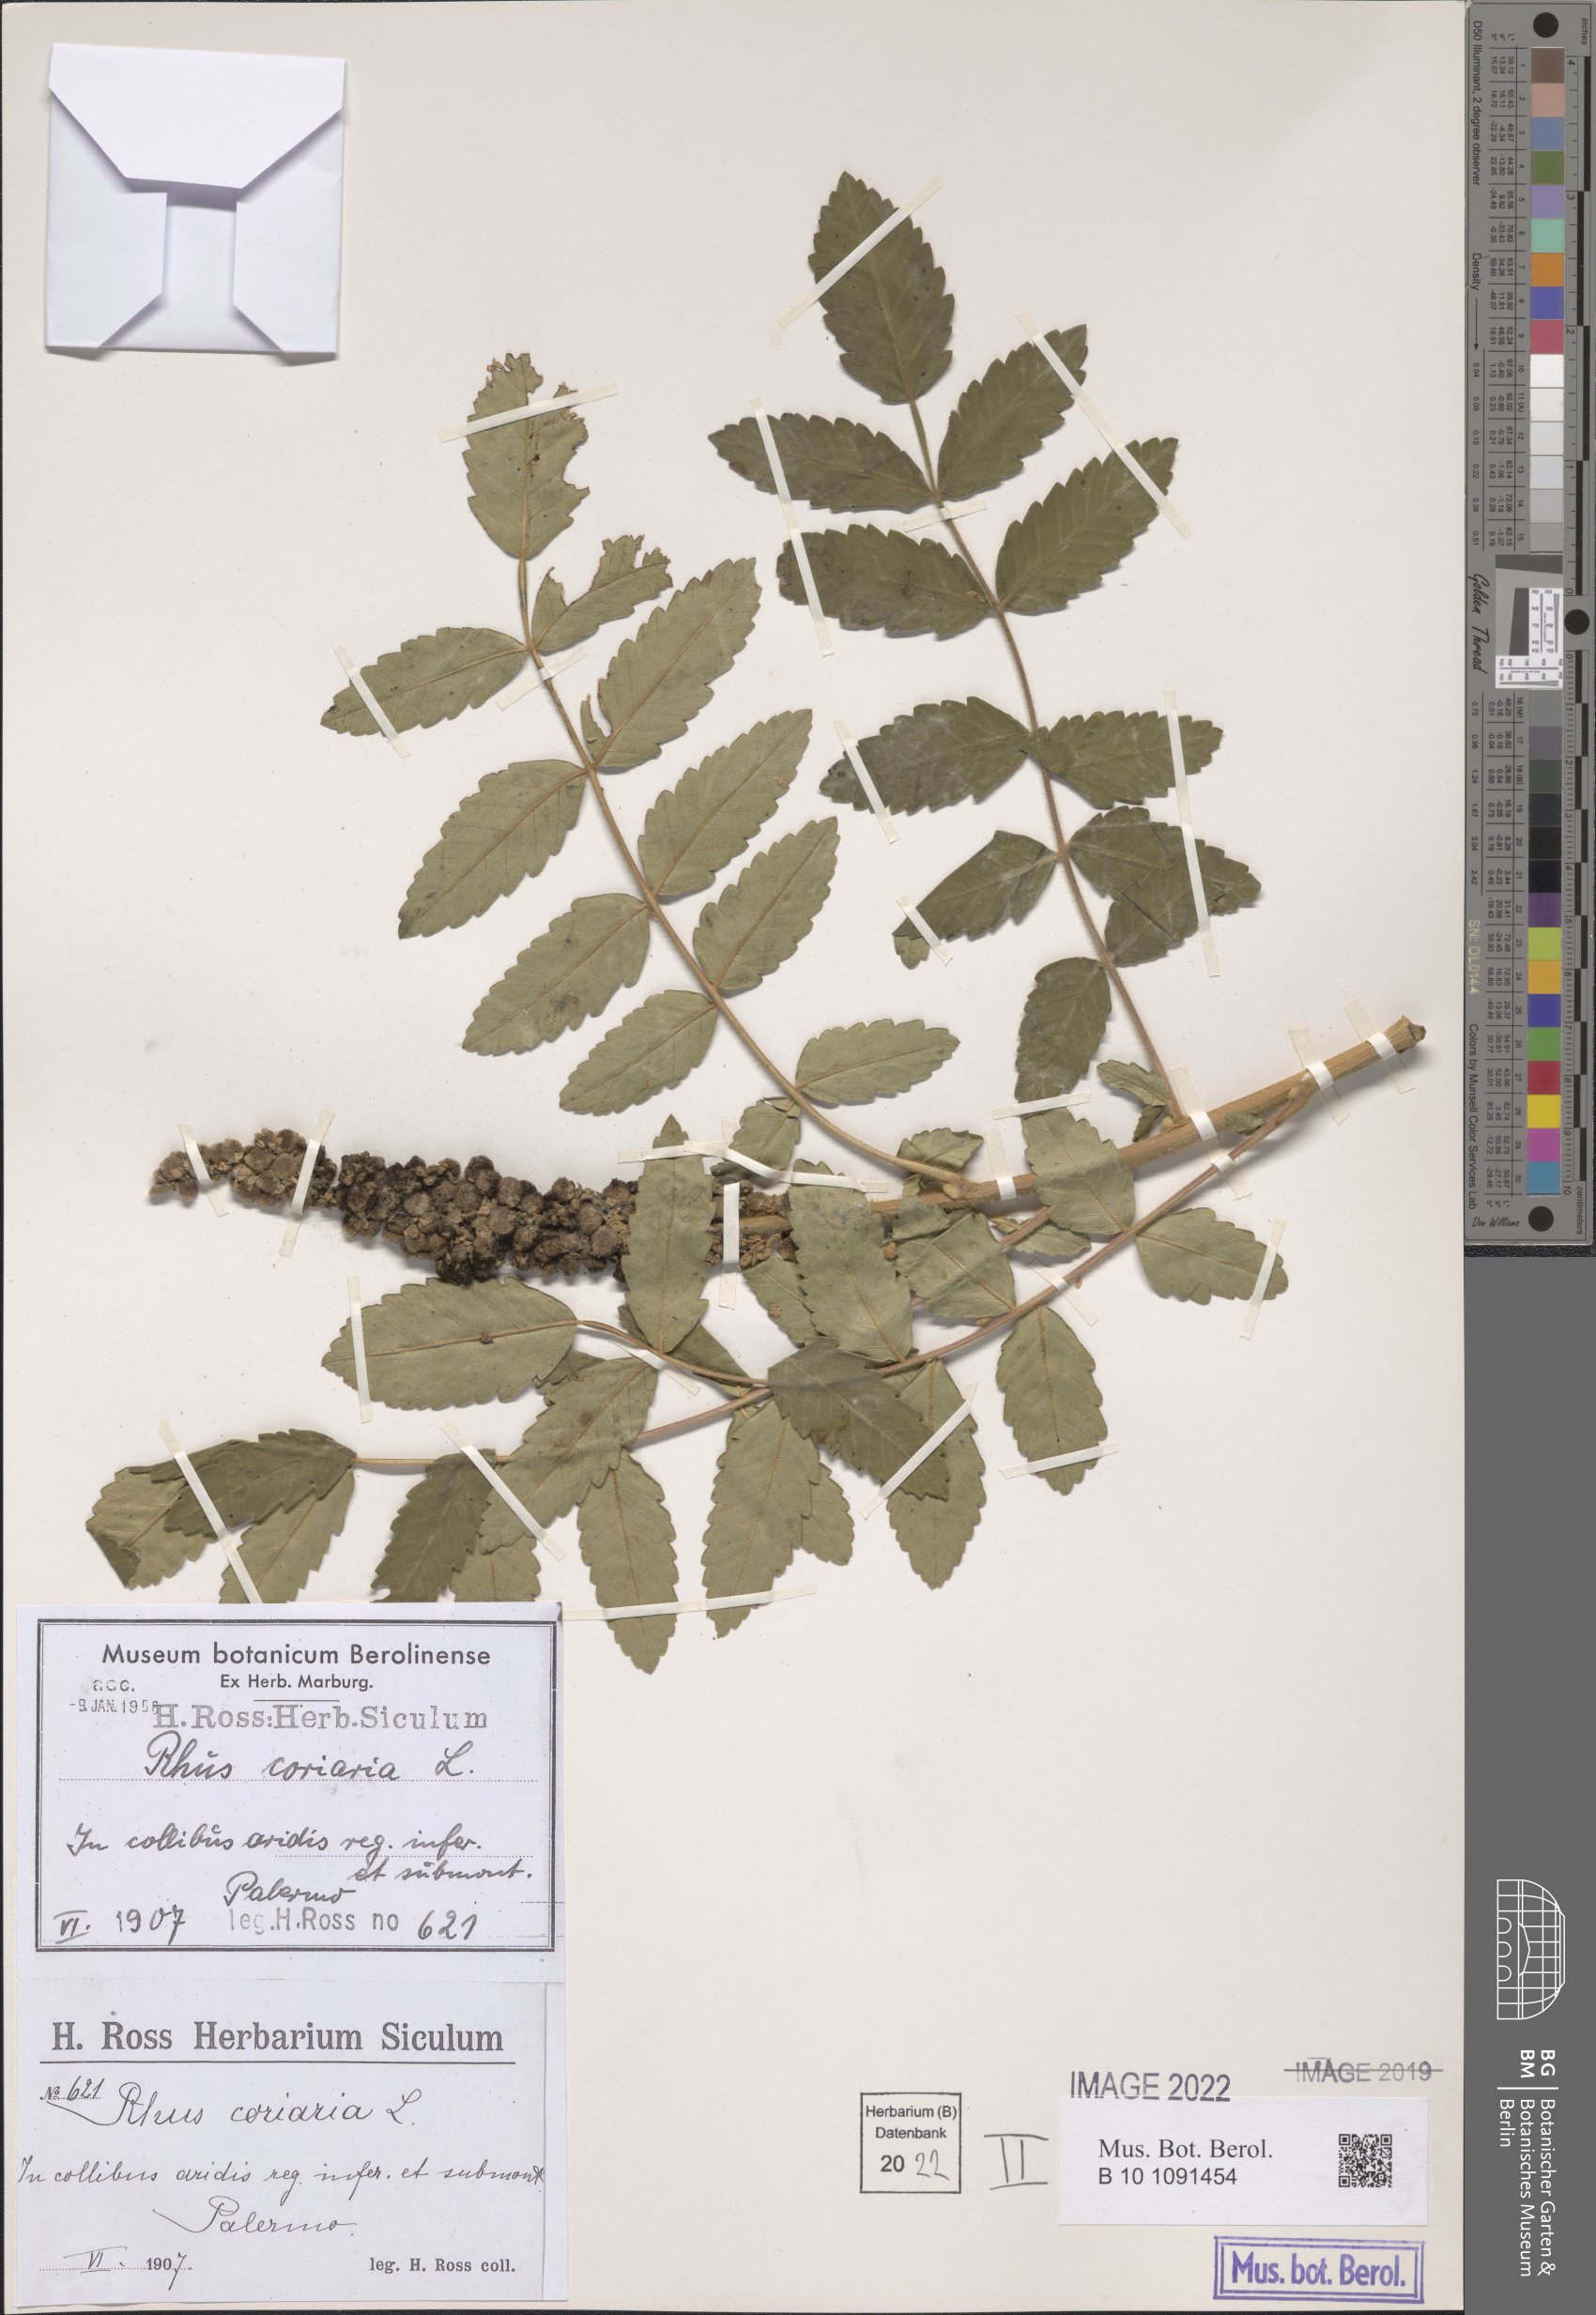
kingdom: Plantae
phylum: Tracheophyta
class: Magnoliopsida
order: Sapindales
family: Anacardiaceae
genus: Rhus
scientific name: Rhus coriaria
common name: Tanner's sumach
